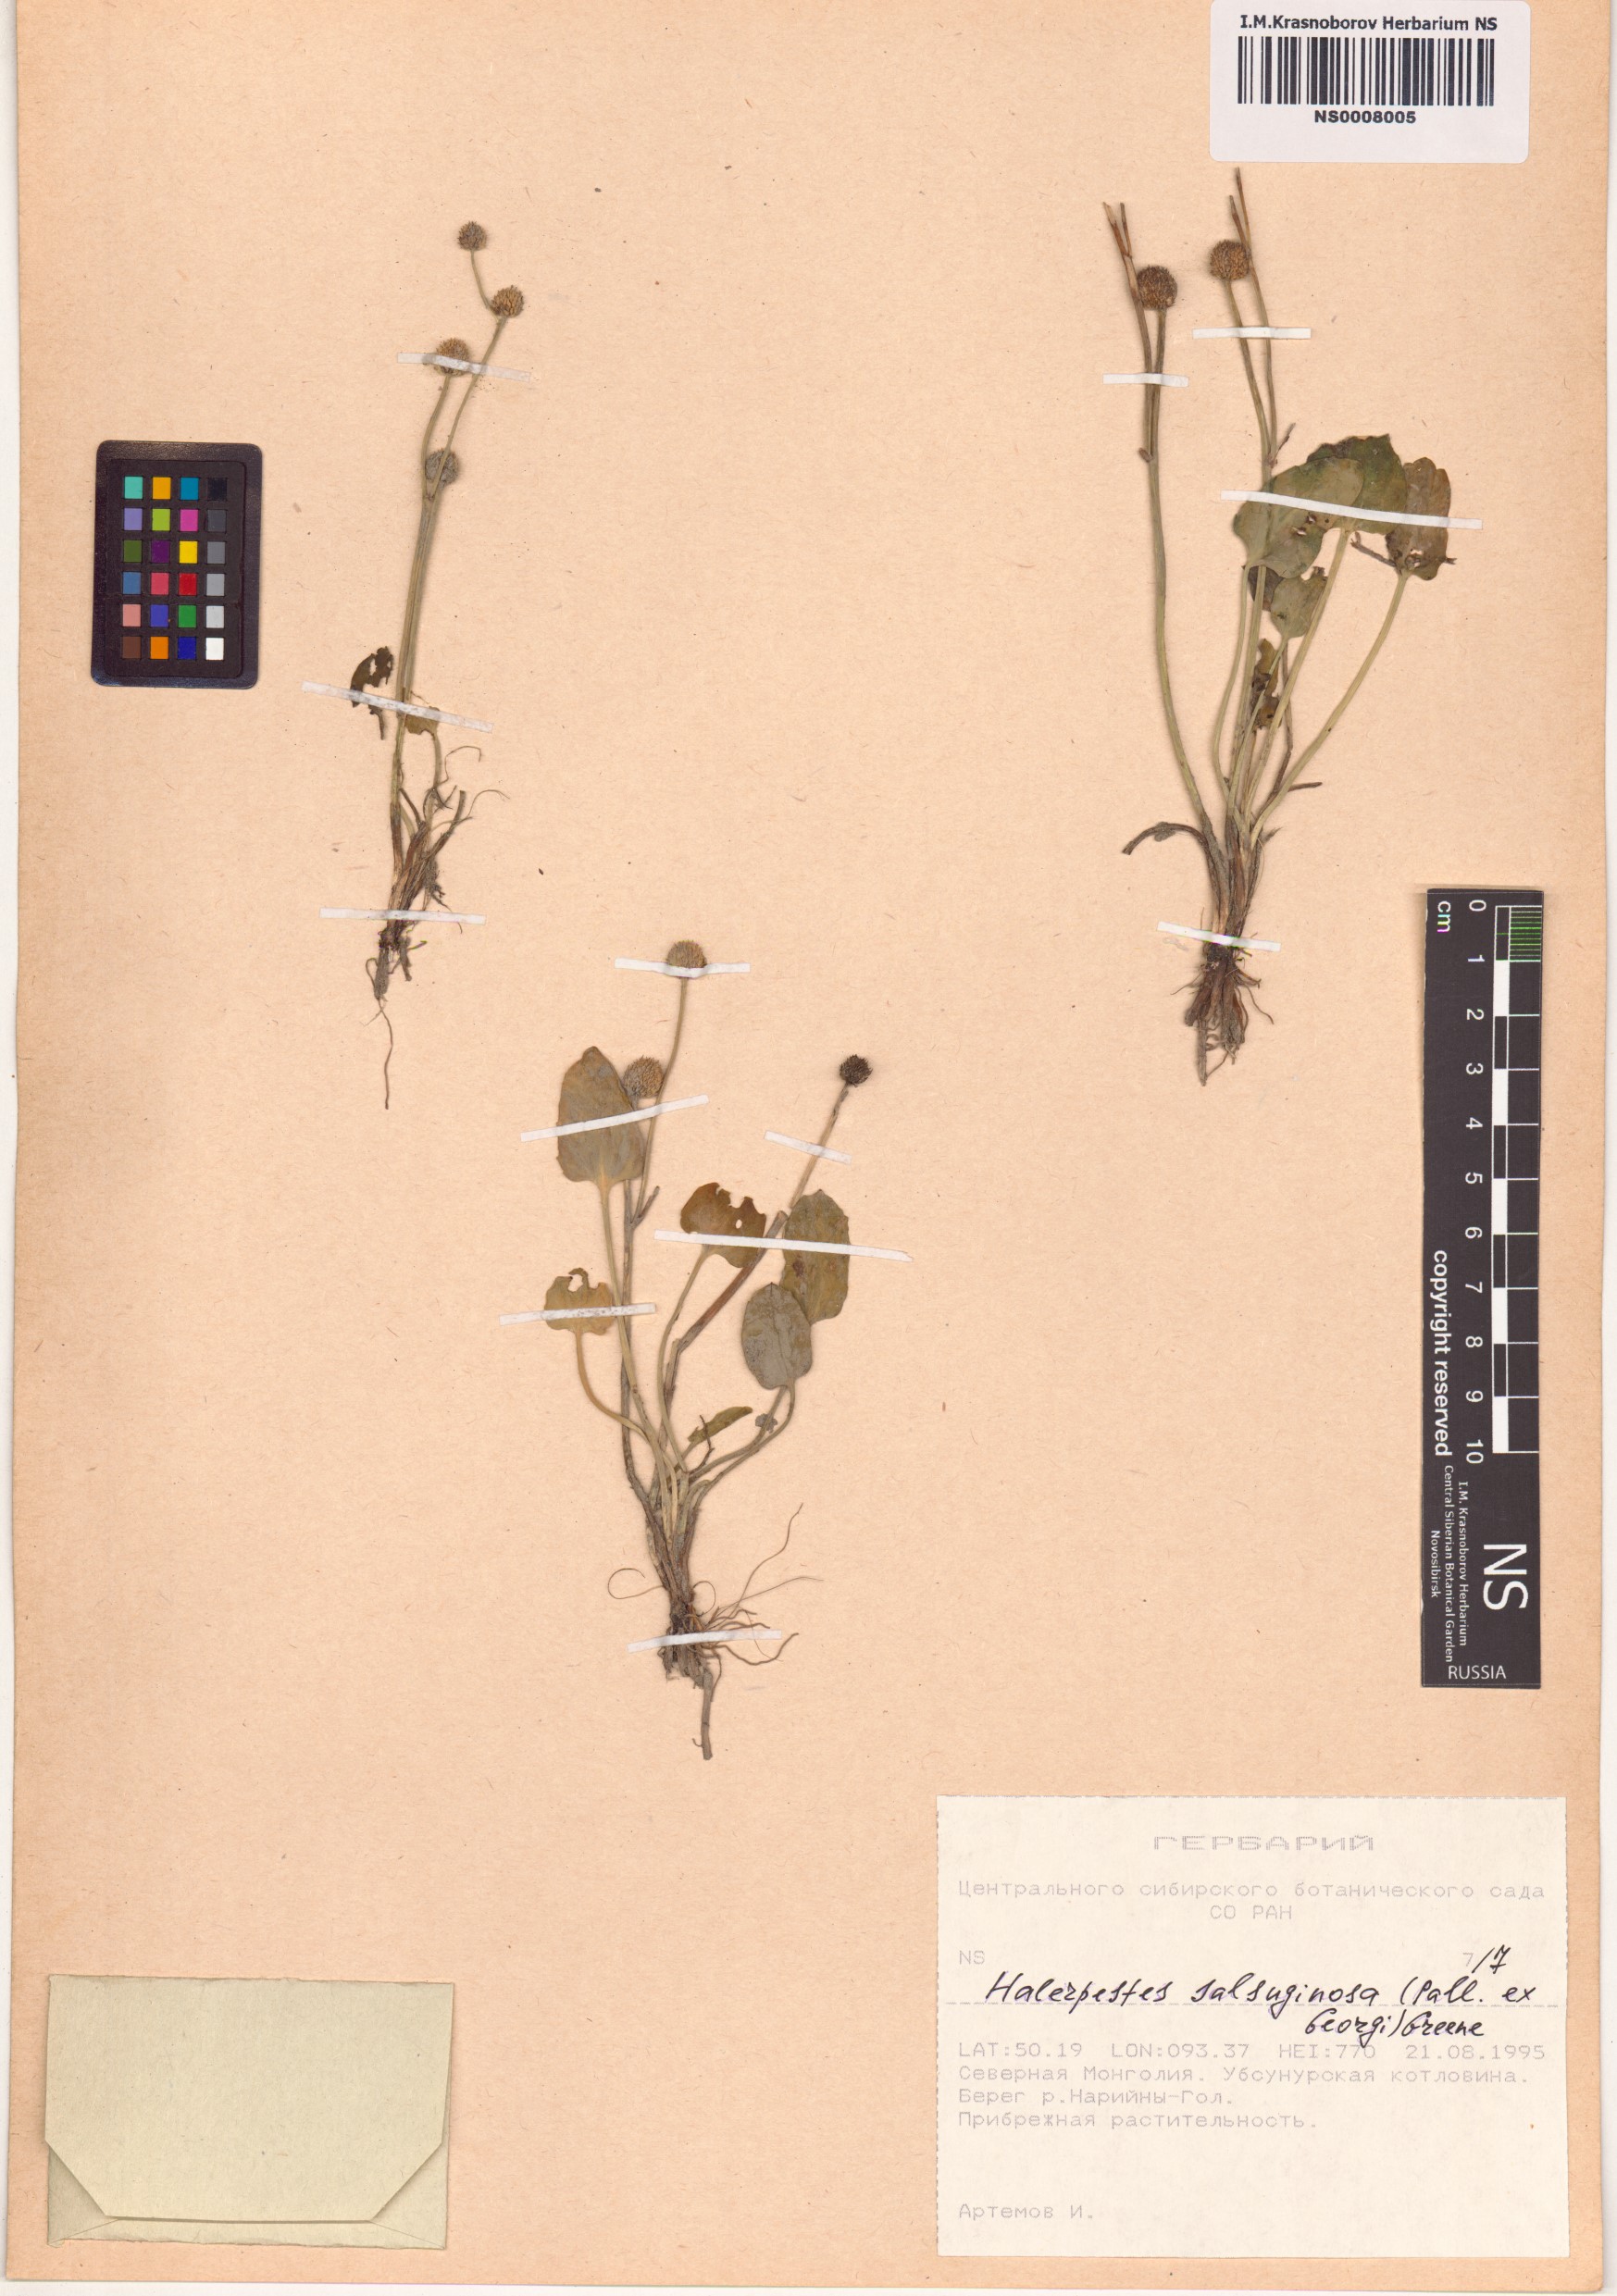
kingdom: Plantae
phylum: Tracheophyta
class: Magnoliopsida
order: Ranunculales
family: Ranunculaceae
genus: Halerpestes
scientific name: Halerpestes sarmentosus
